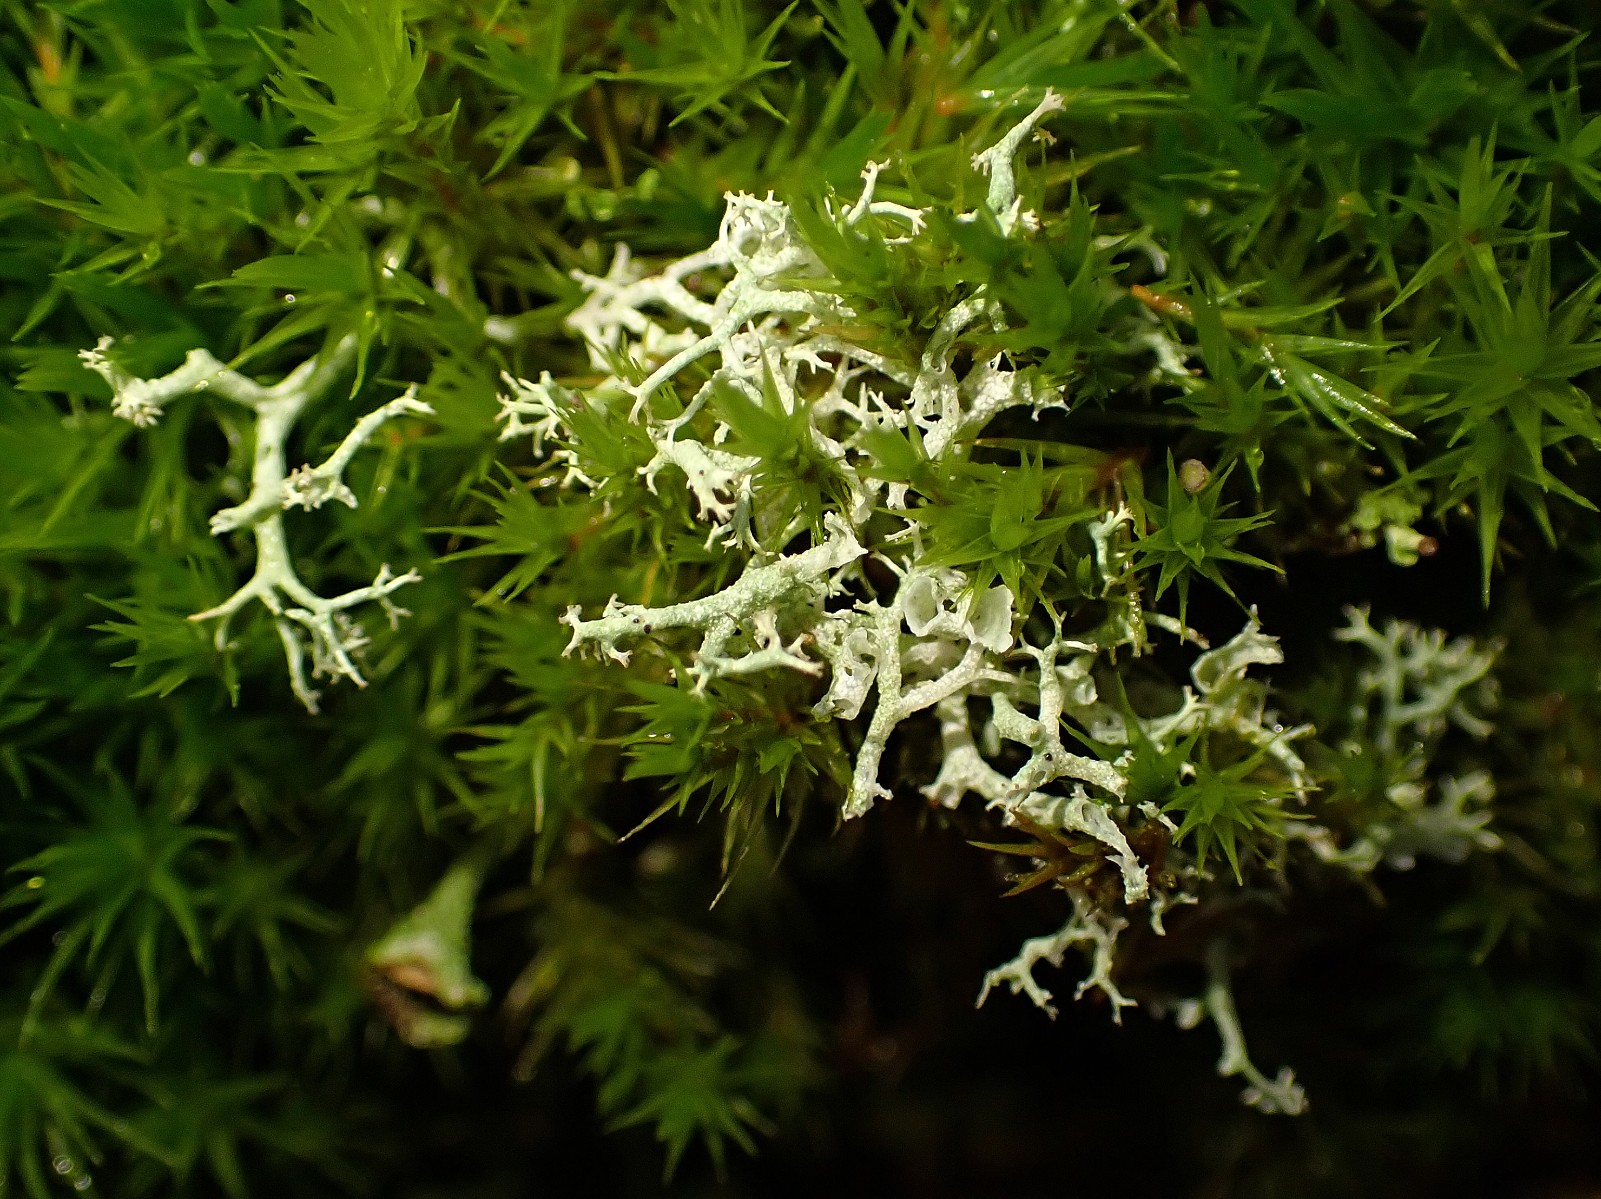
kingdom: Fungi
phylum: Ascomycota
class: Lecanoromycetes
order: Lecanorales
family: Cladoniaceae
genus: Cladonia
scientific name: Cladonia portentosa
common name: hede-rensdyrlav
